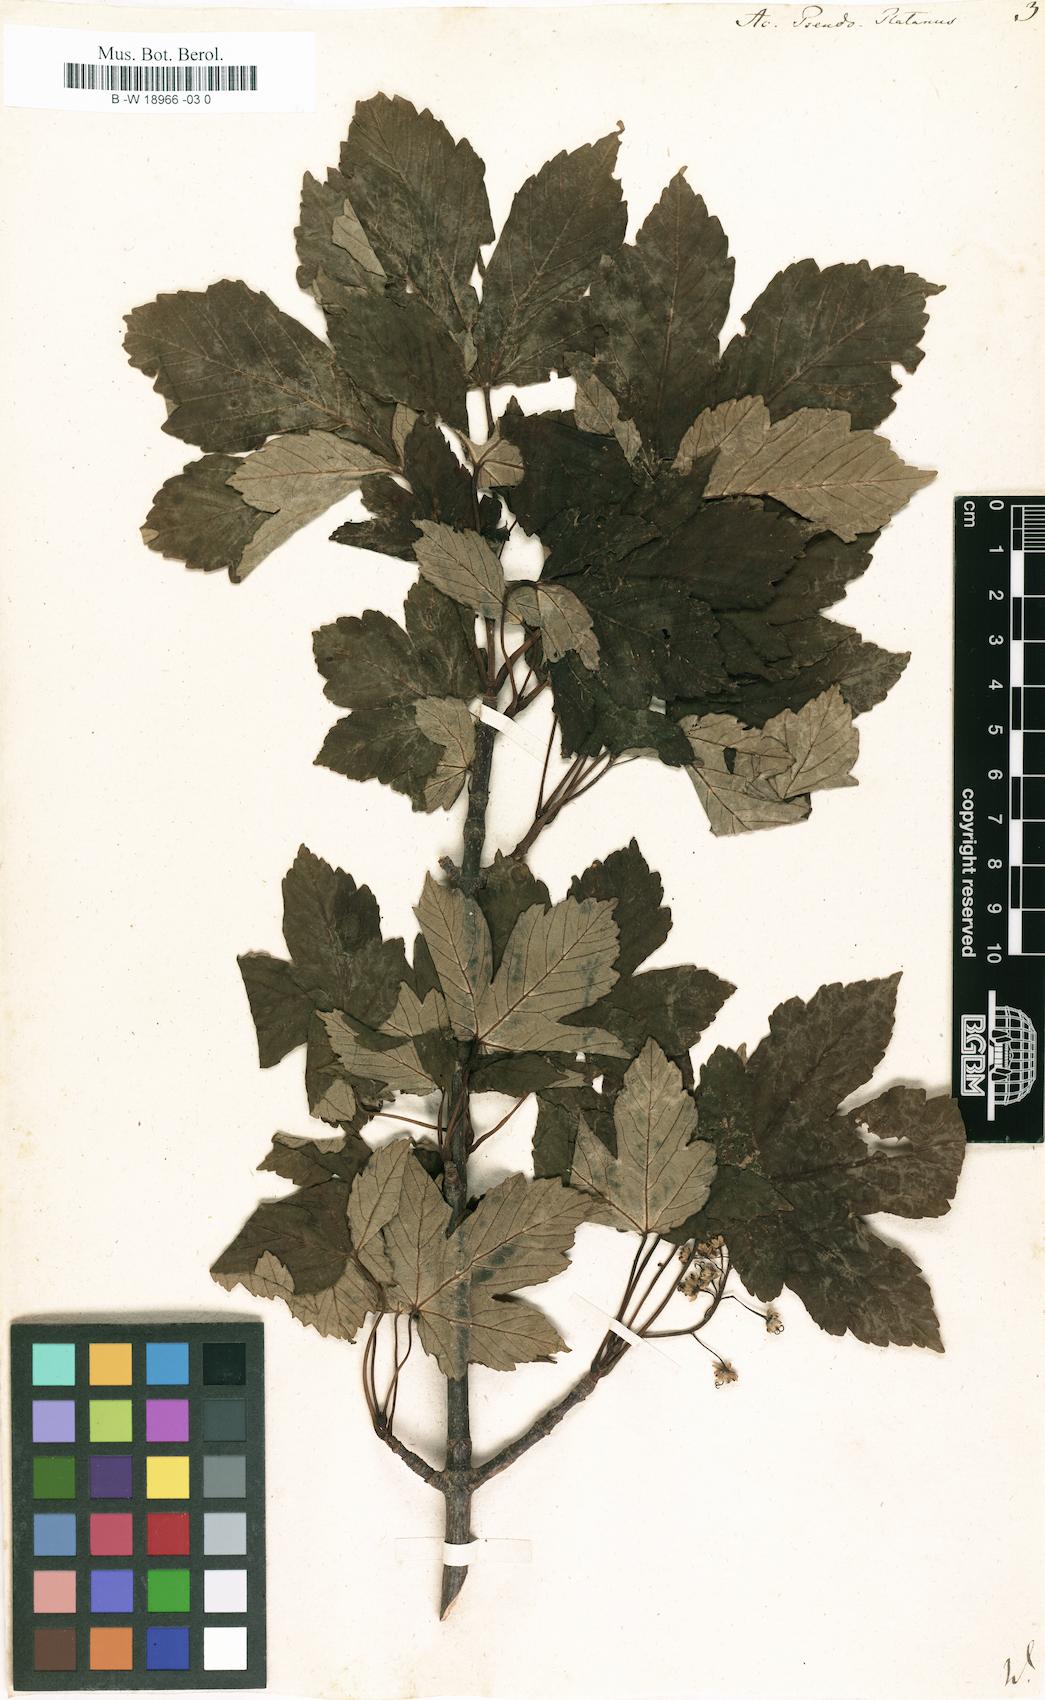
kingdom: Plantae
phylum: Tracheophyta
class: Magnoliopsida
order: Sapindales
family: Sapindaceae
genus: Acer
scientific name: Acer pseudoplatanus
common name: Sycamore
